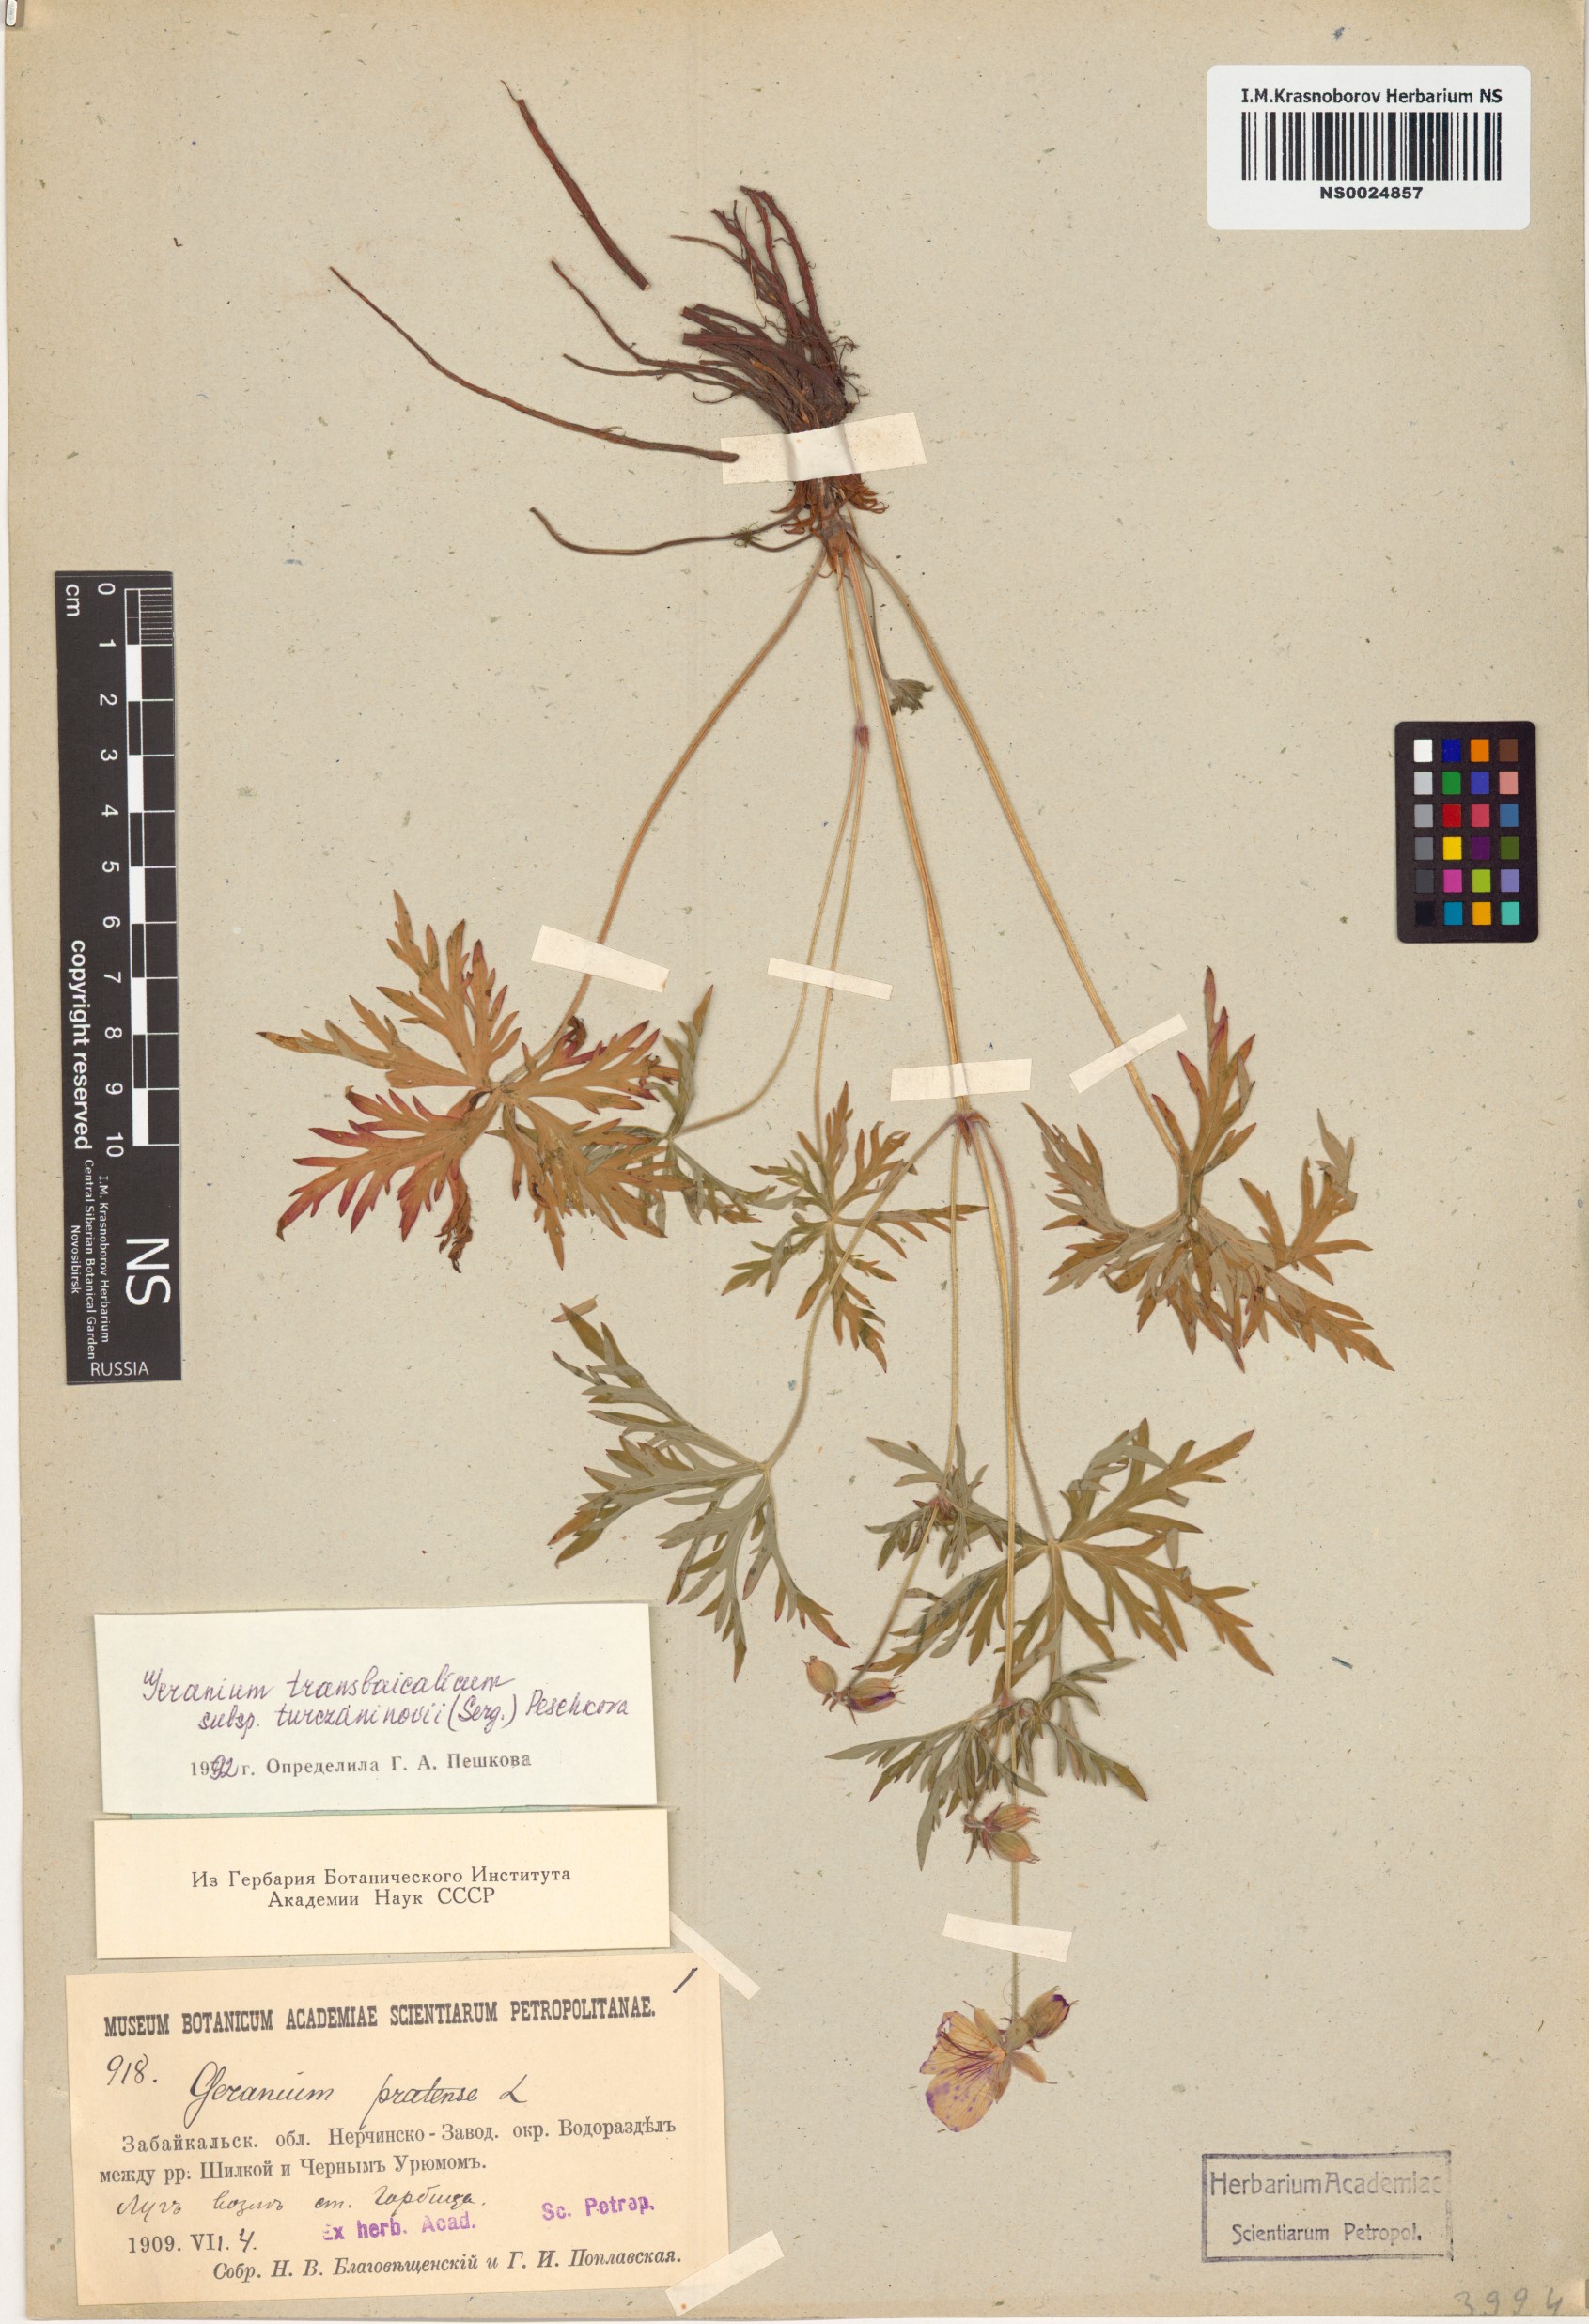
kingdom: Plantae
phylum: Tracheophyta
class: Magnoliopsida
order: Geraniales
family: Geraniaceae
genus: Geranium
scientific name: Geranium pratense
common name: Meadow crane's-bill
